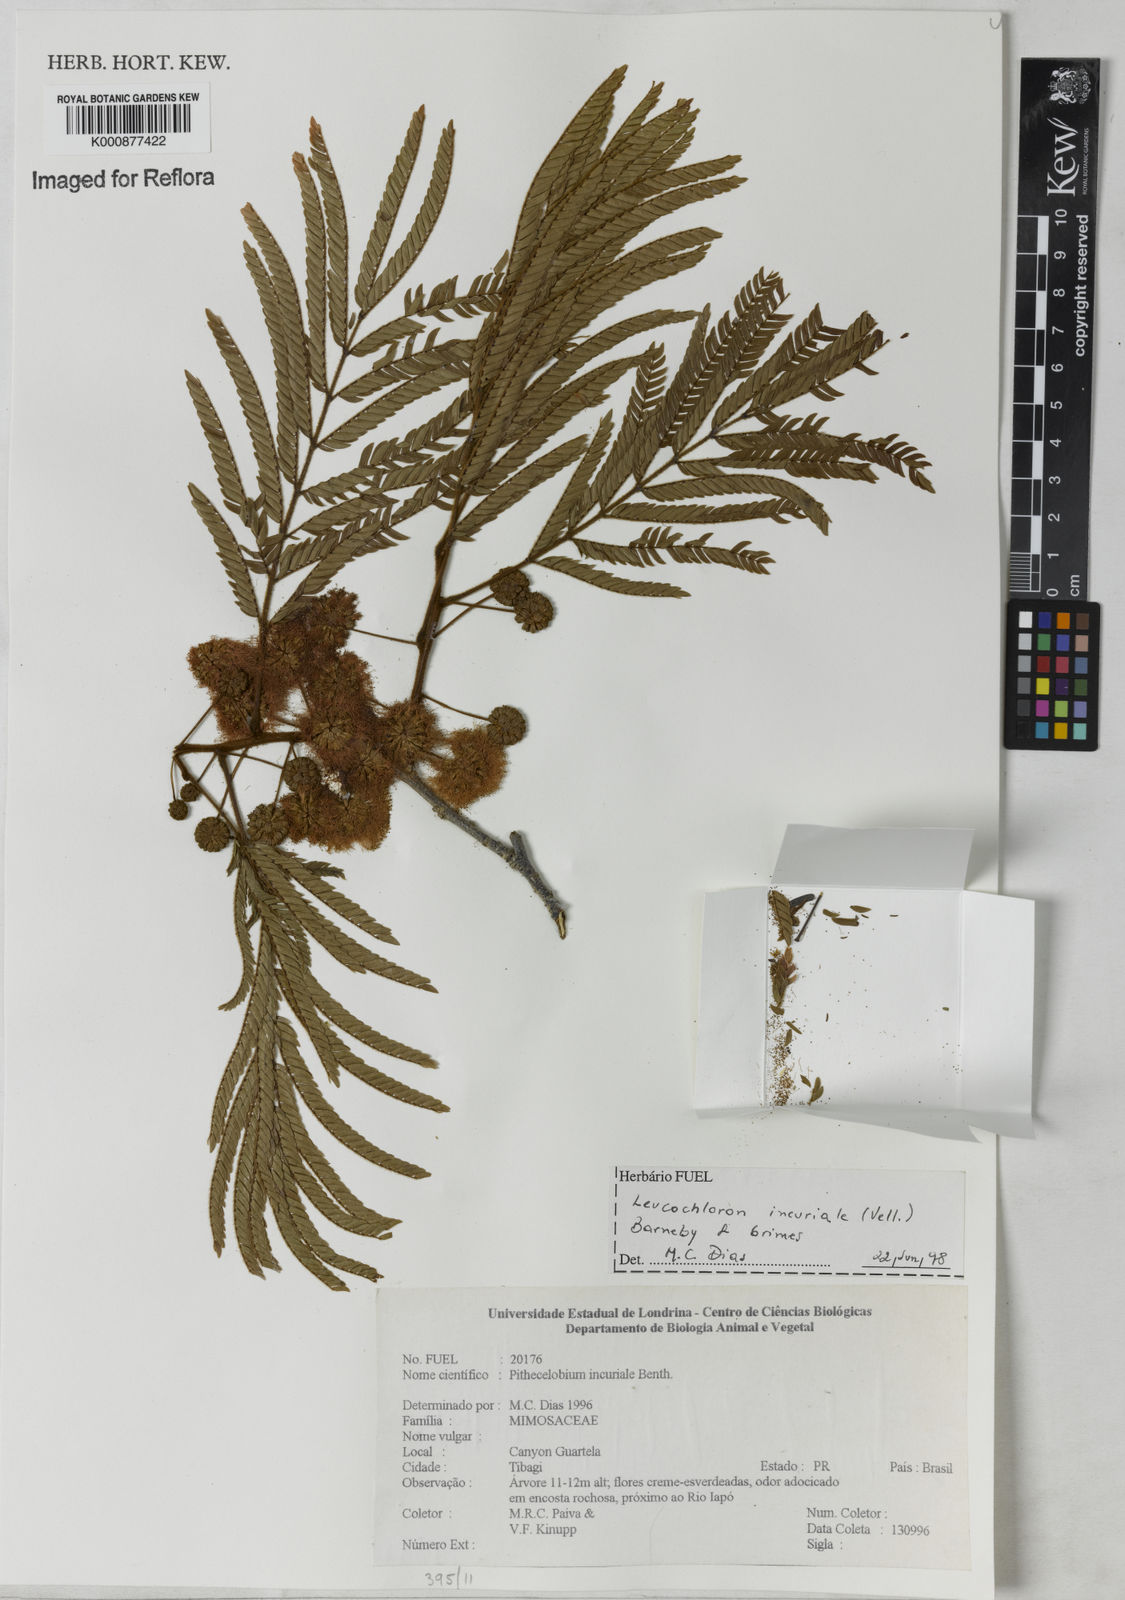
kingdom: Plantae
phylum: Tracheophyta
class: Magnoliopsida
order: Fabales
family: Fabaceae
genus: Leucochloron
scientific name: Leucochloron incuriale
